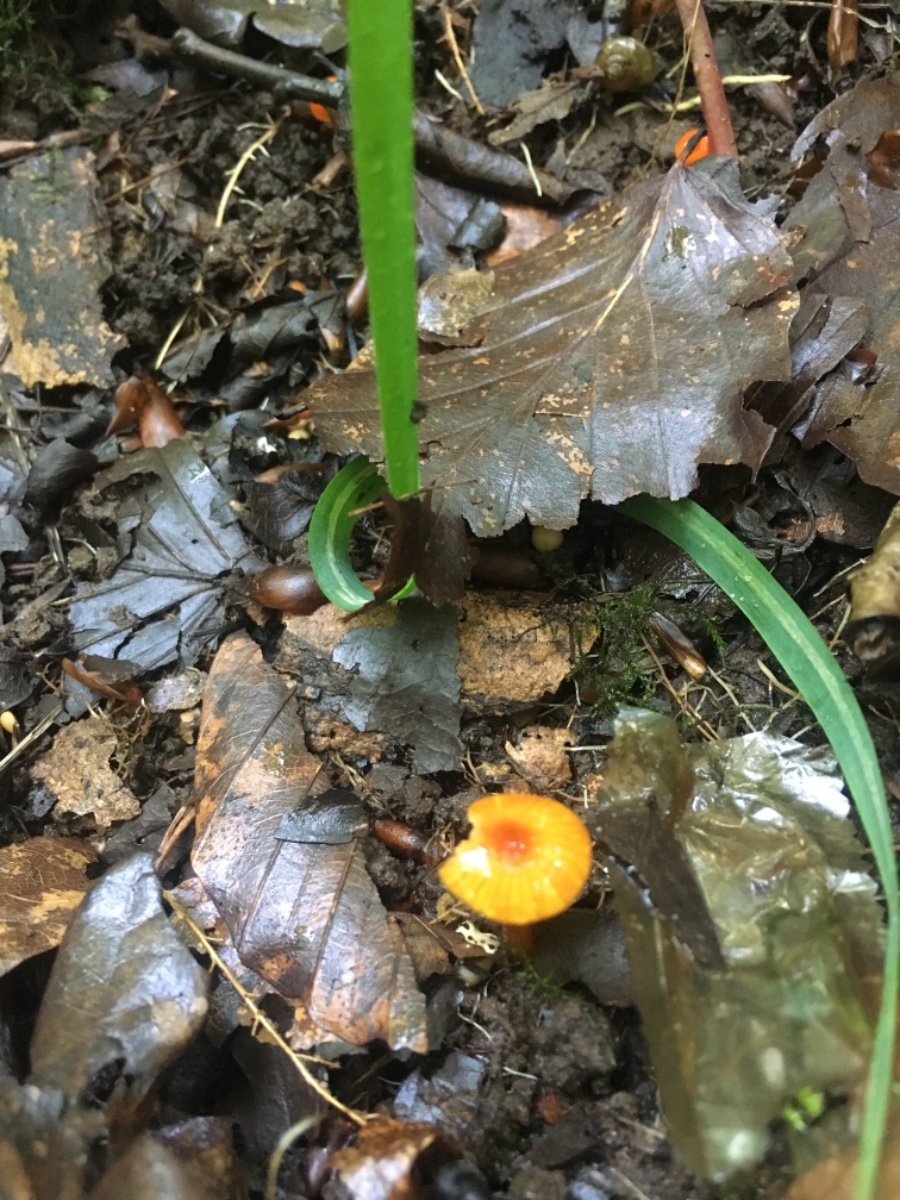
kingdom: Fungi
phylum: Basidiomycota
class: Agaricomycetes
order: Agaricales
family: Hygrophoraceae
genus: Hygrocybe
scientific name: Hygrocybe mucronella
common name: bitter vokshat
